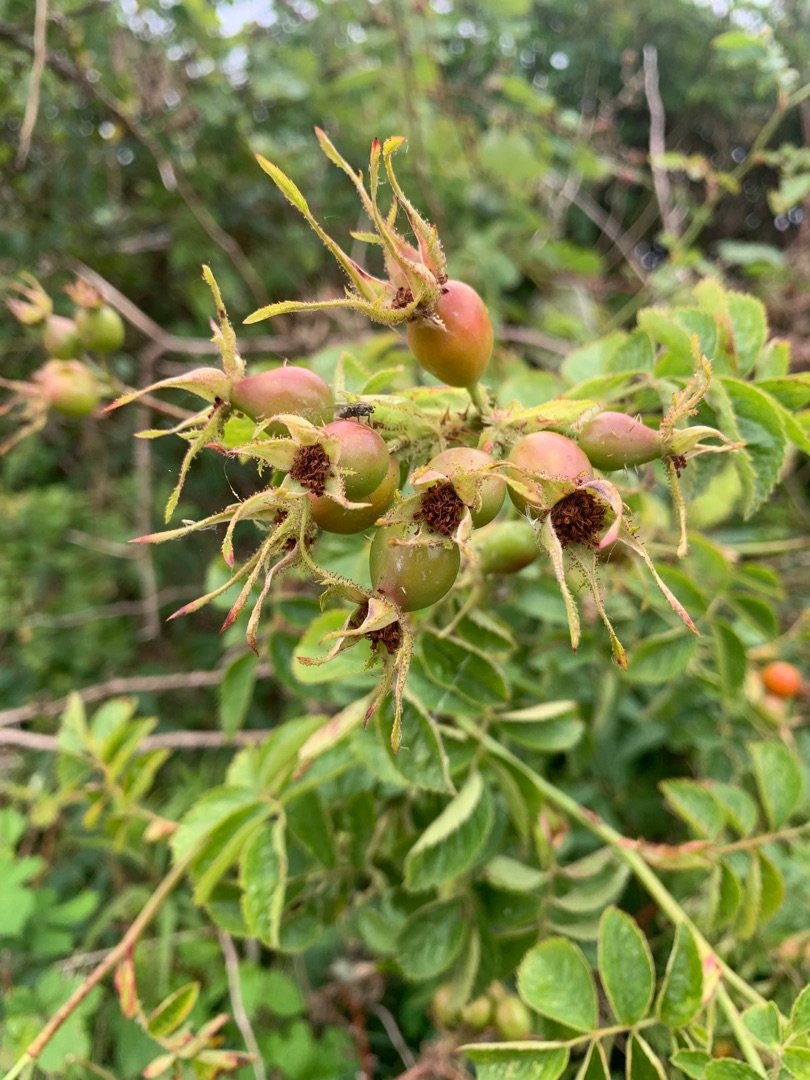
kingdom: Plantae
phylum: Tracheophyta
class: Magnoliopsida
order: Rosales
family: Rosaceae
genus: Rosa
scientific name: Rosa rubiginosa
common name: Æble-rose
